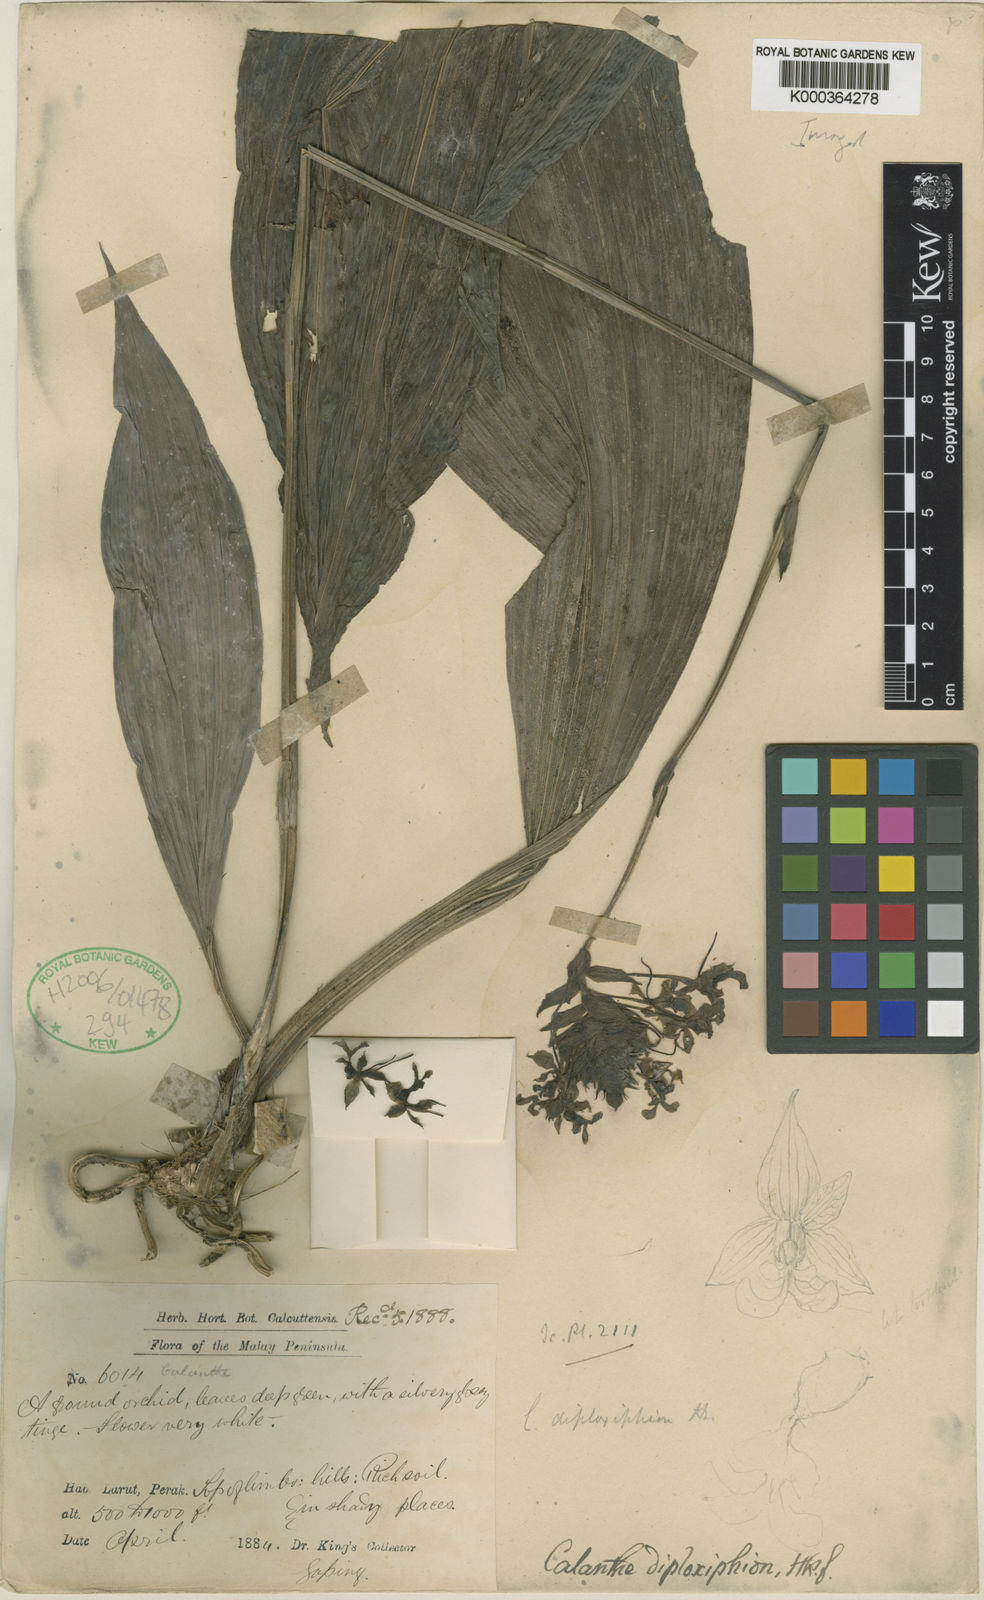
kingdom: Plantae
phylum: Tracheophyta
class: Liliopsida
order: Asparagales
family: Orchidaceae
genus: Calanthe
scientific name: Calanthe triplicata
